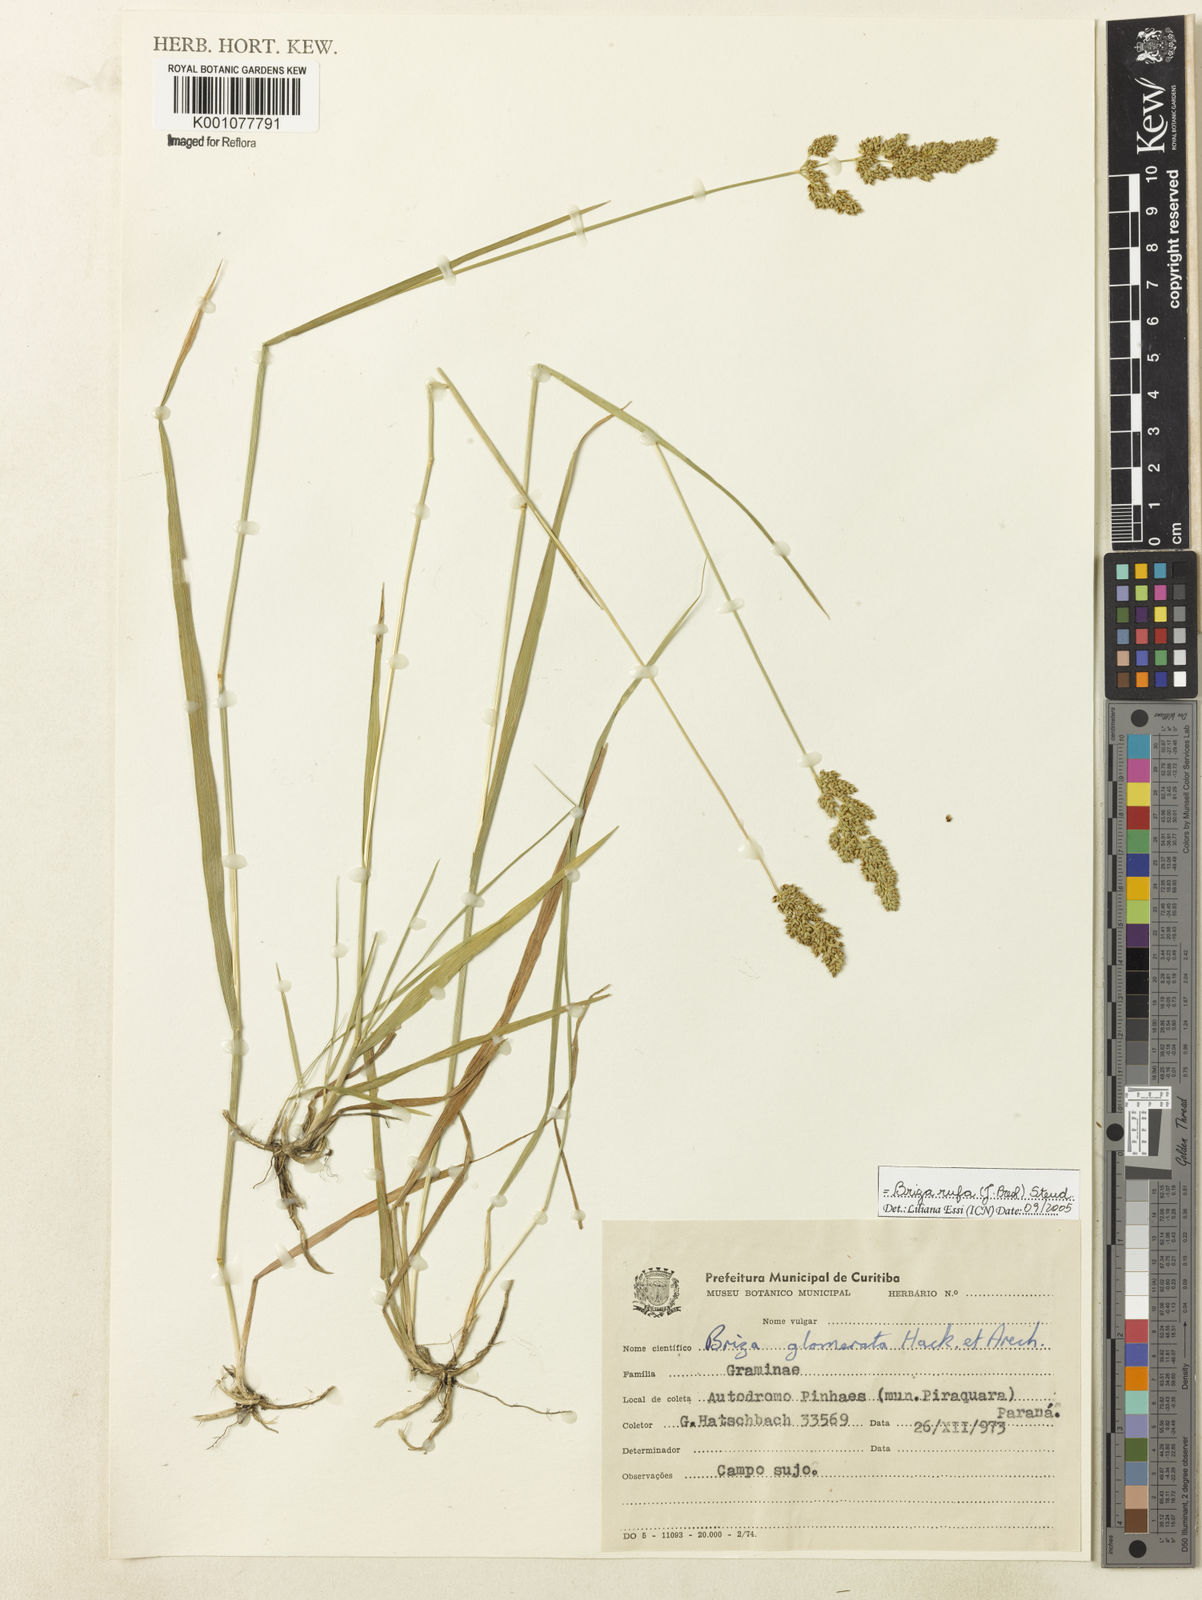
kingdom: Plantae
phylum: Tracheophyta
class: Liliopsida
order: Poales
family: Poaceae
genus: Lombardochloa
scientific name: Lombardochloa rufa
